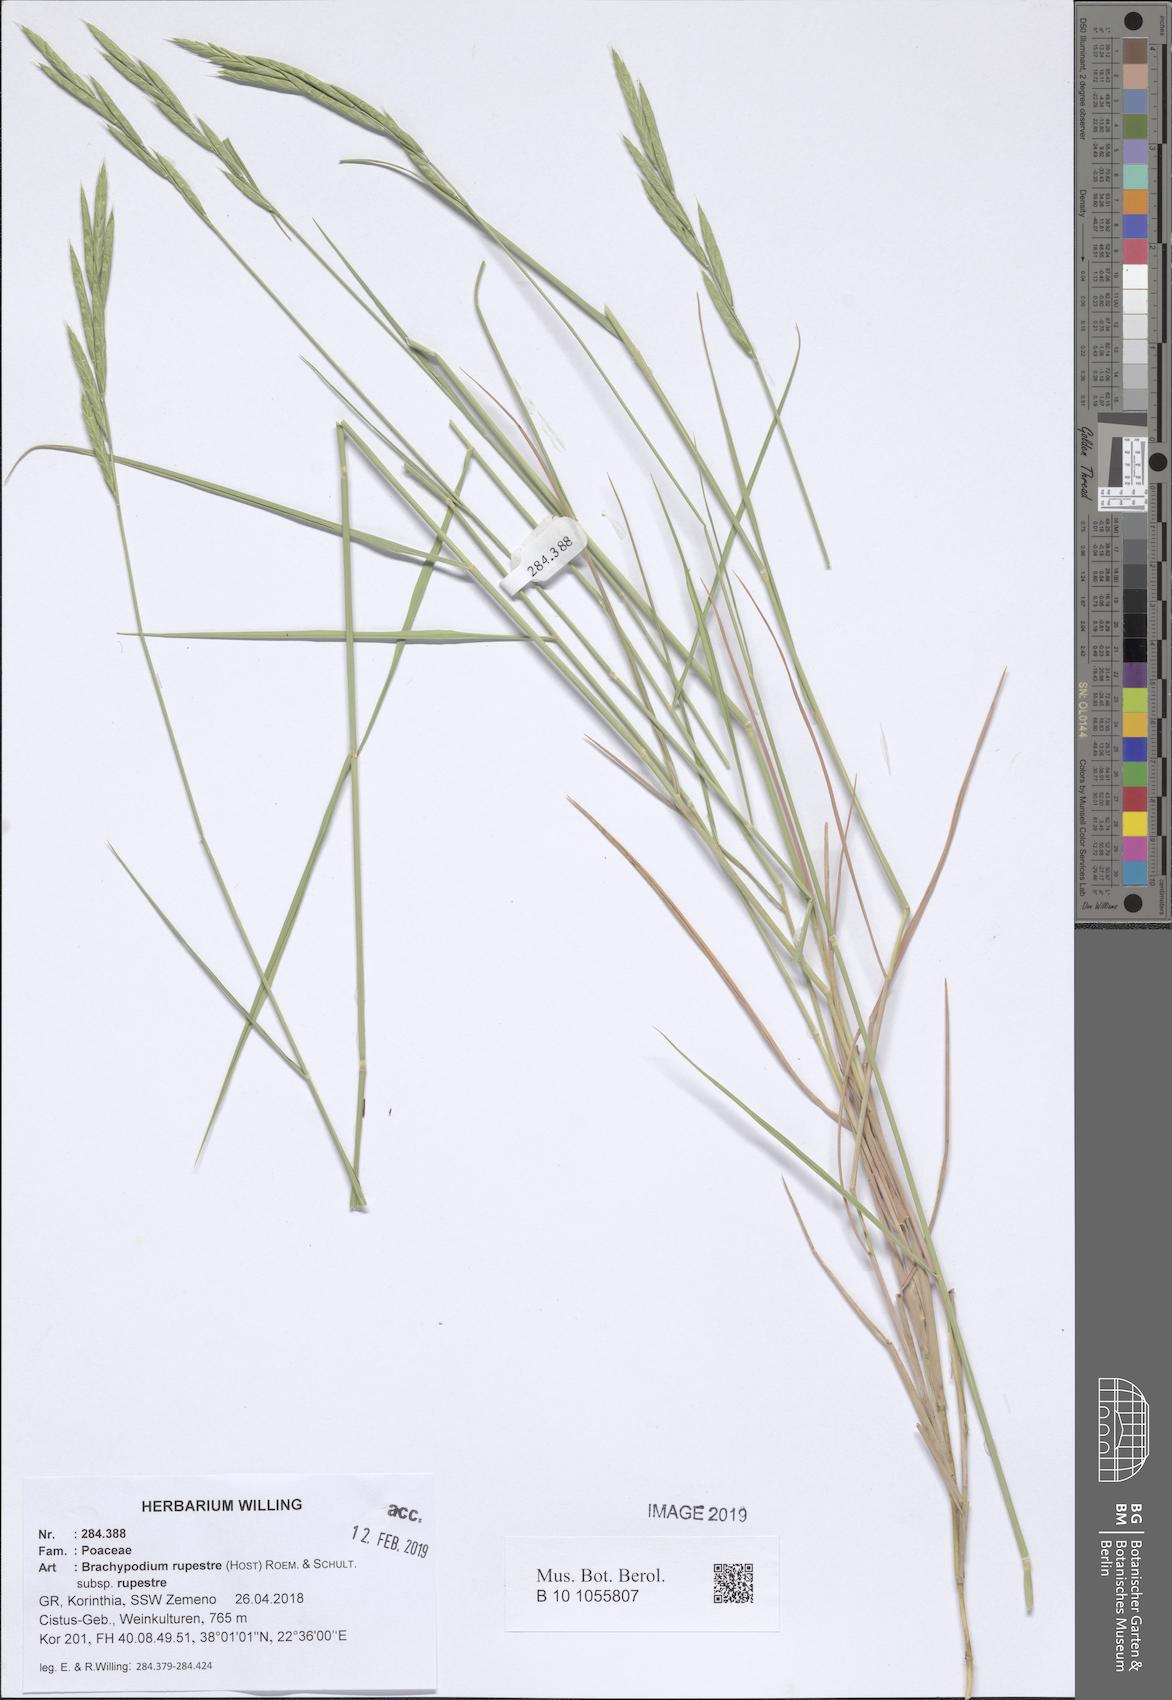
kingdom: Plantae
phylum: Tracheophyta
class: Liliopsida
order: Poales
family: Poaceae
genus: Brachypodium
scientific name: Brachypodium pinnatum
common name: Tor grass
